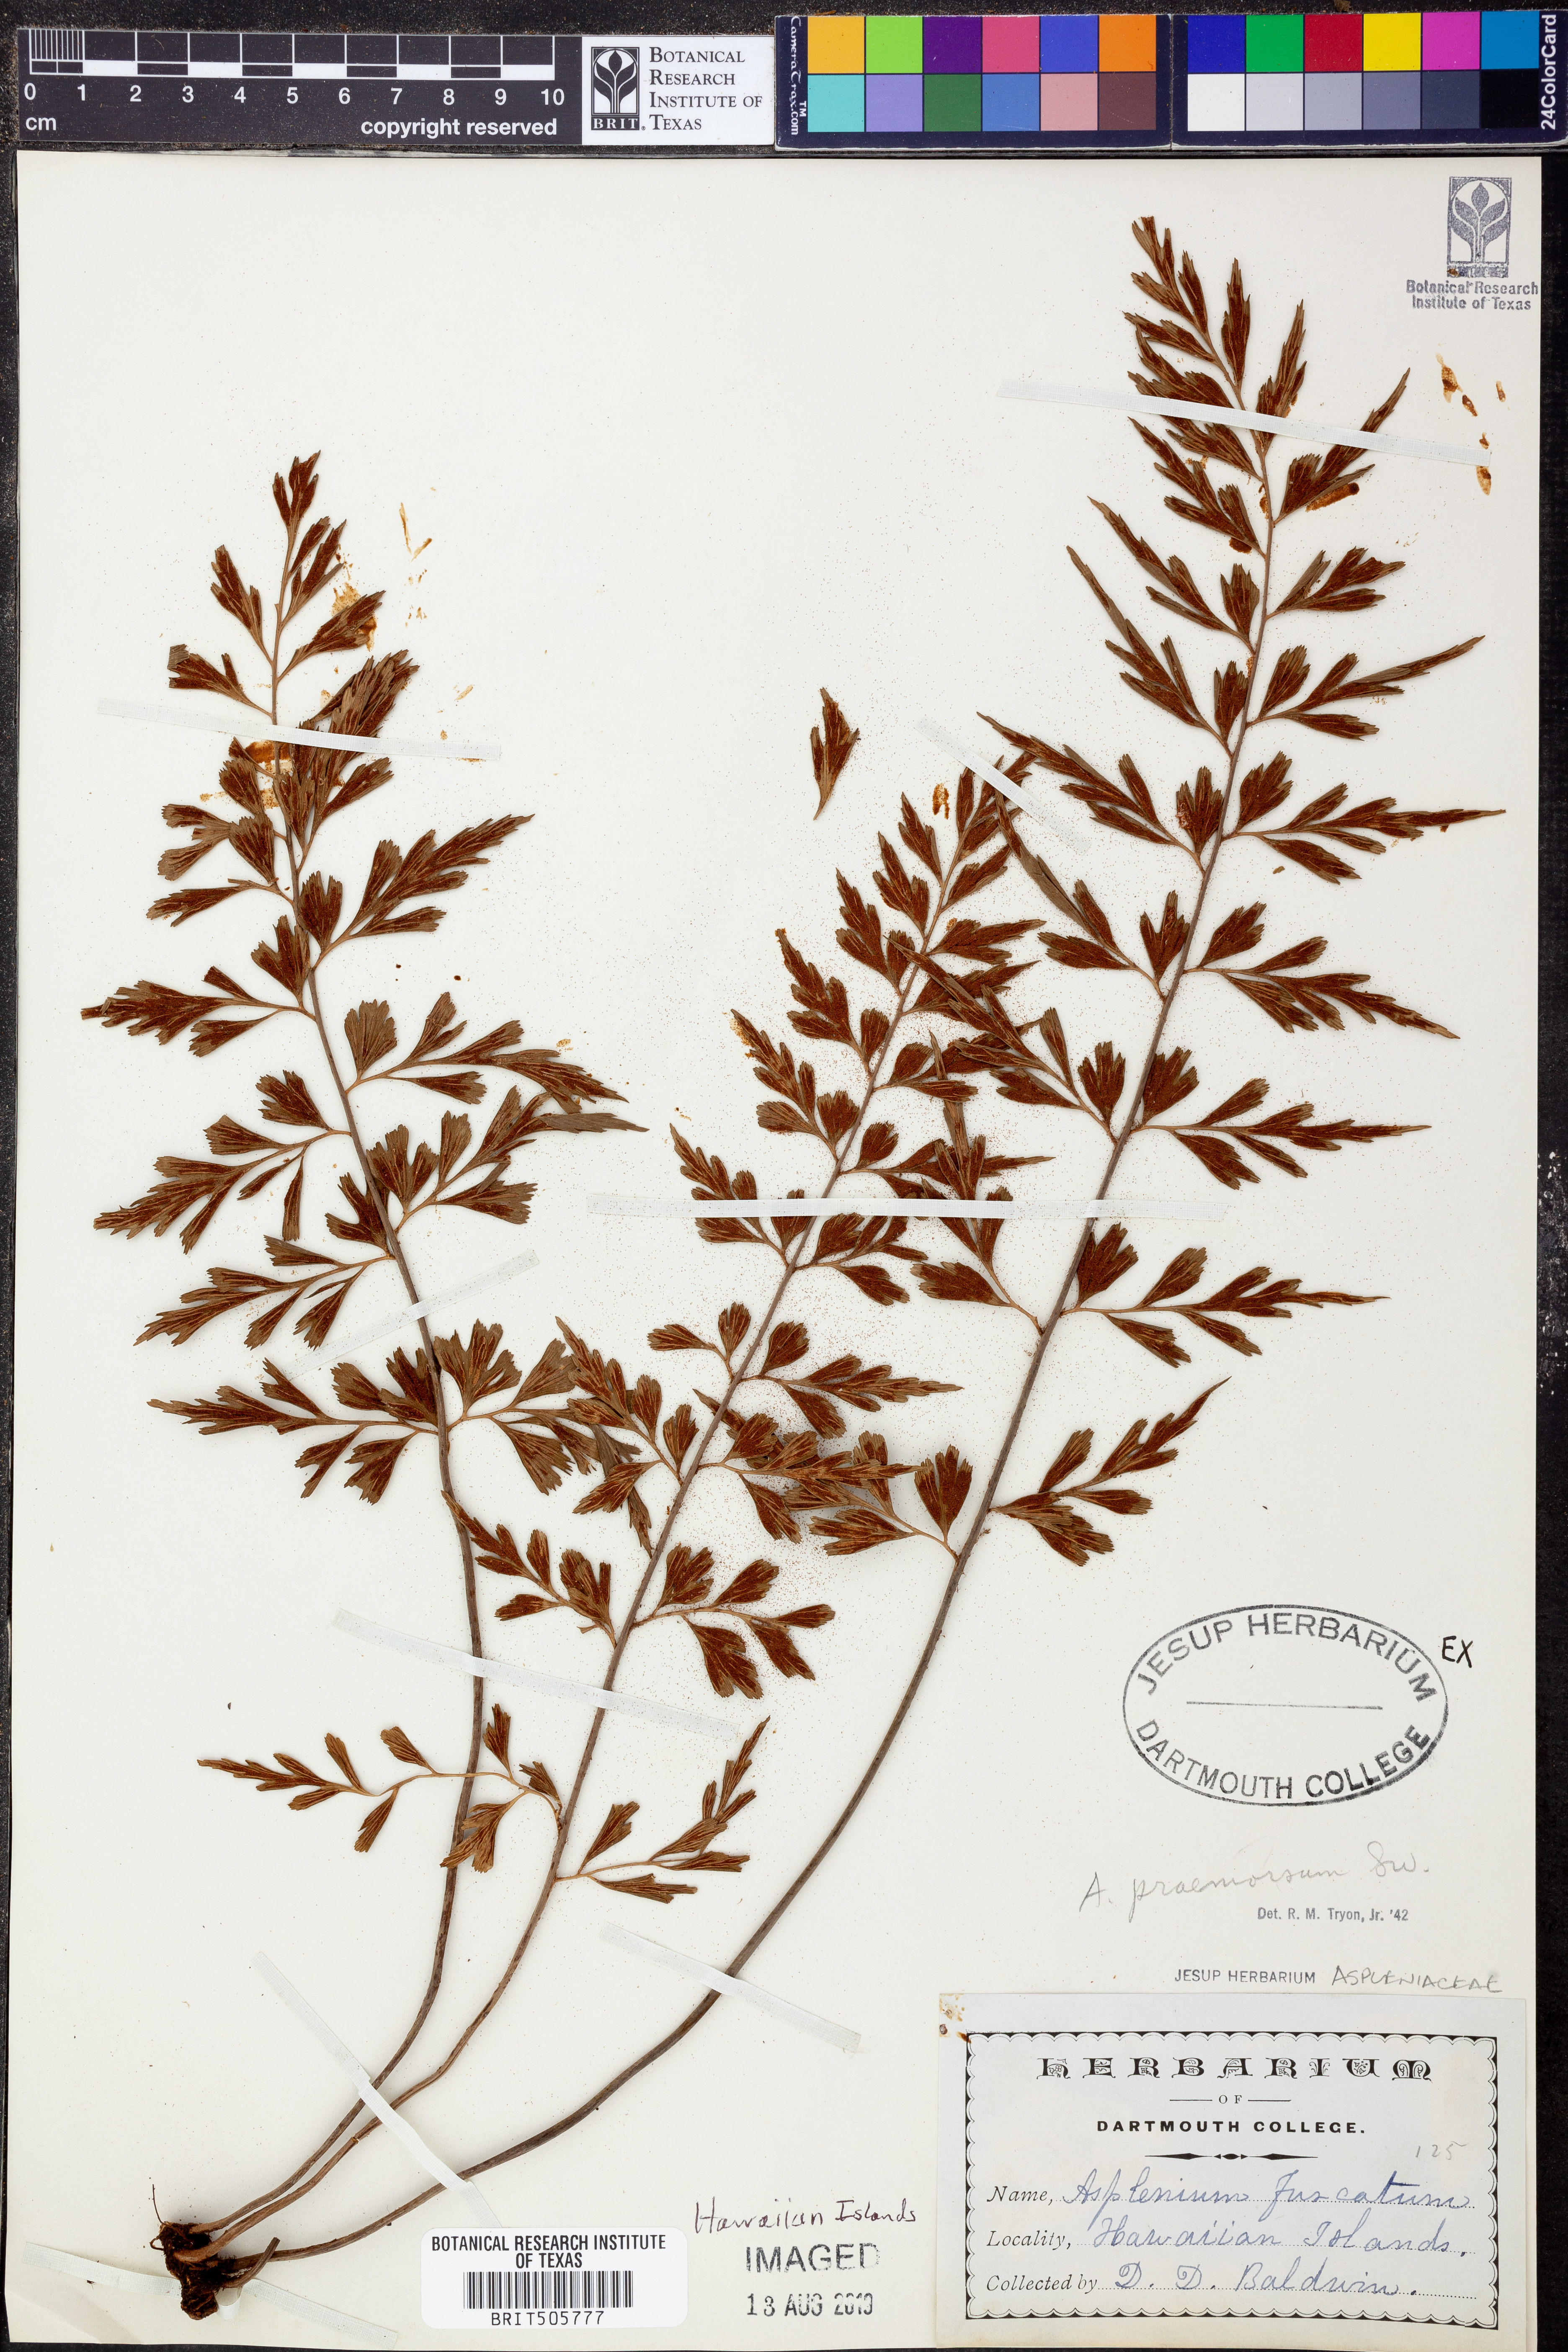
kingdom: Plantae
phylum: Tracheophyta
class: Polypodiopsida
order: Polypodiales
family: Aspleniaceae
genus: Asplenium
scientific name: Asplenium praemorsum
